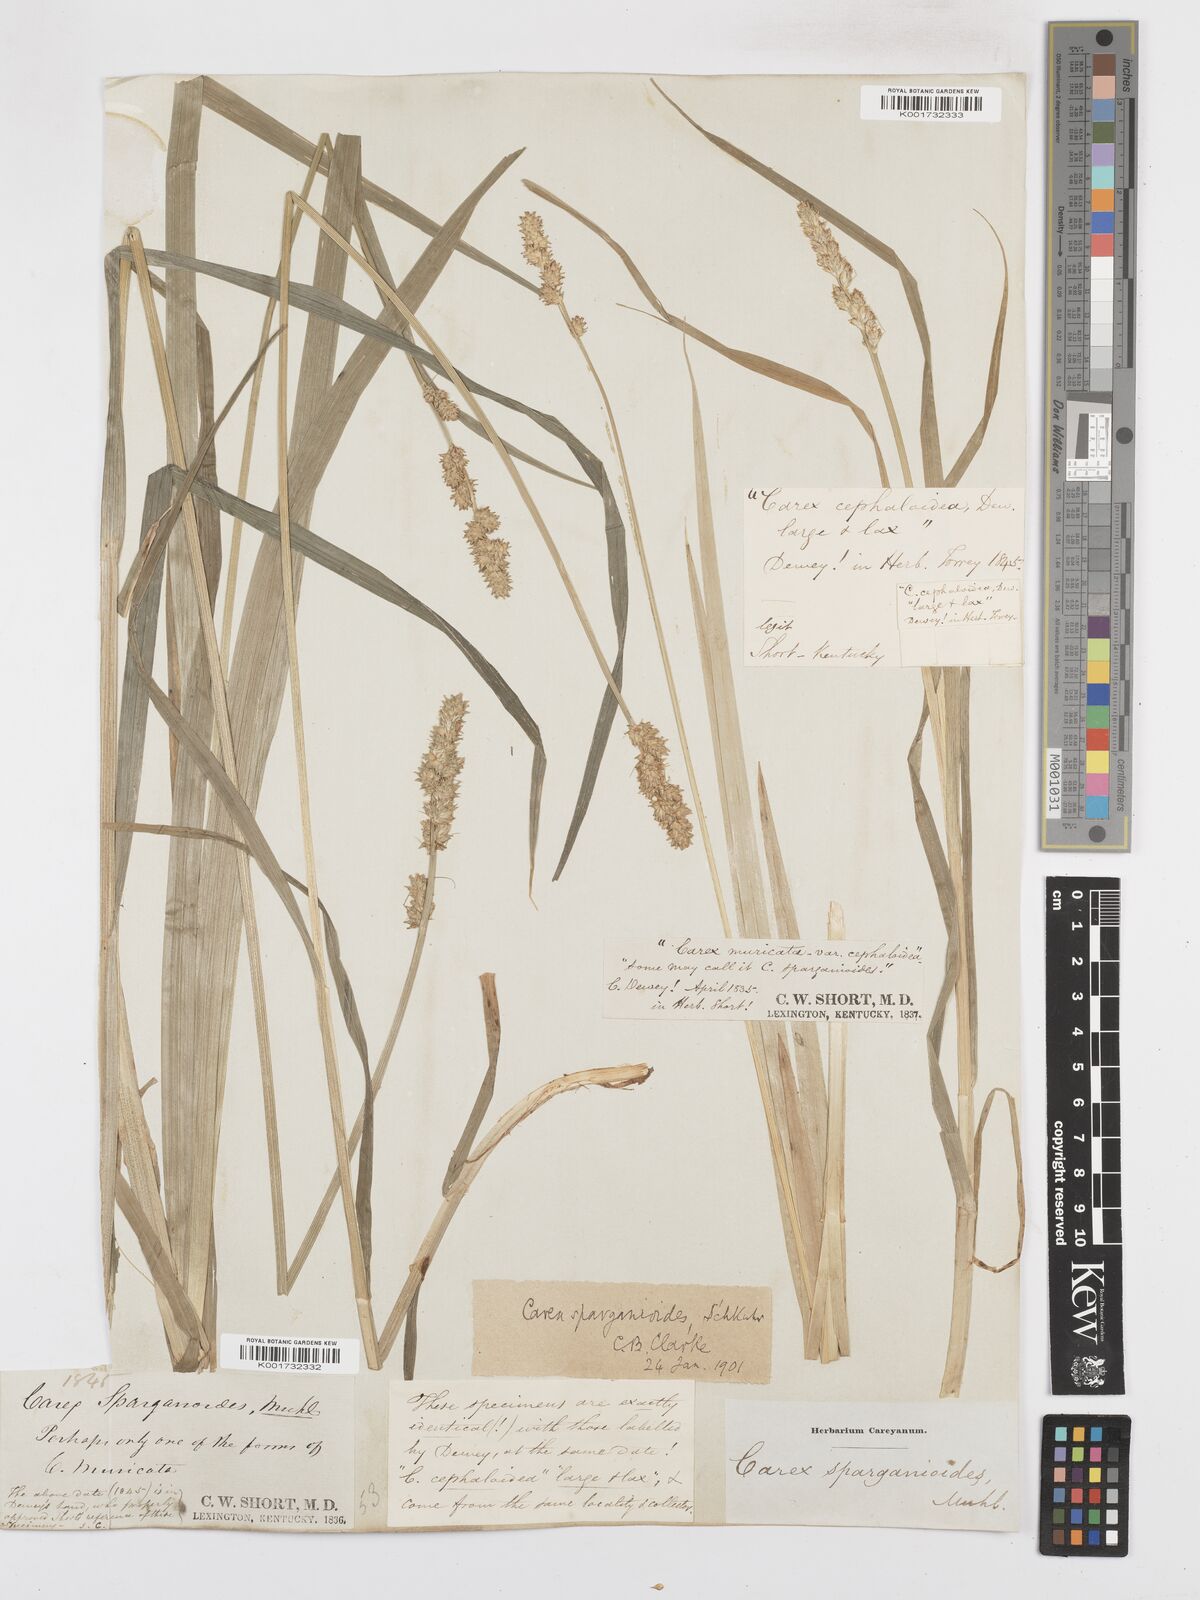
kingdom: Plantae
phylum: Tracheophyta
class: Liliopsida
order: Poales
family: Cyperaceae
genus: Carex
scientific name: Carex sparganioides
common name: Burreed sedge
